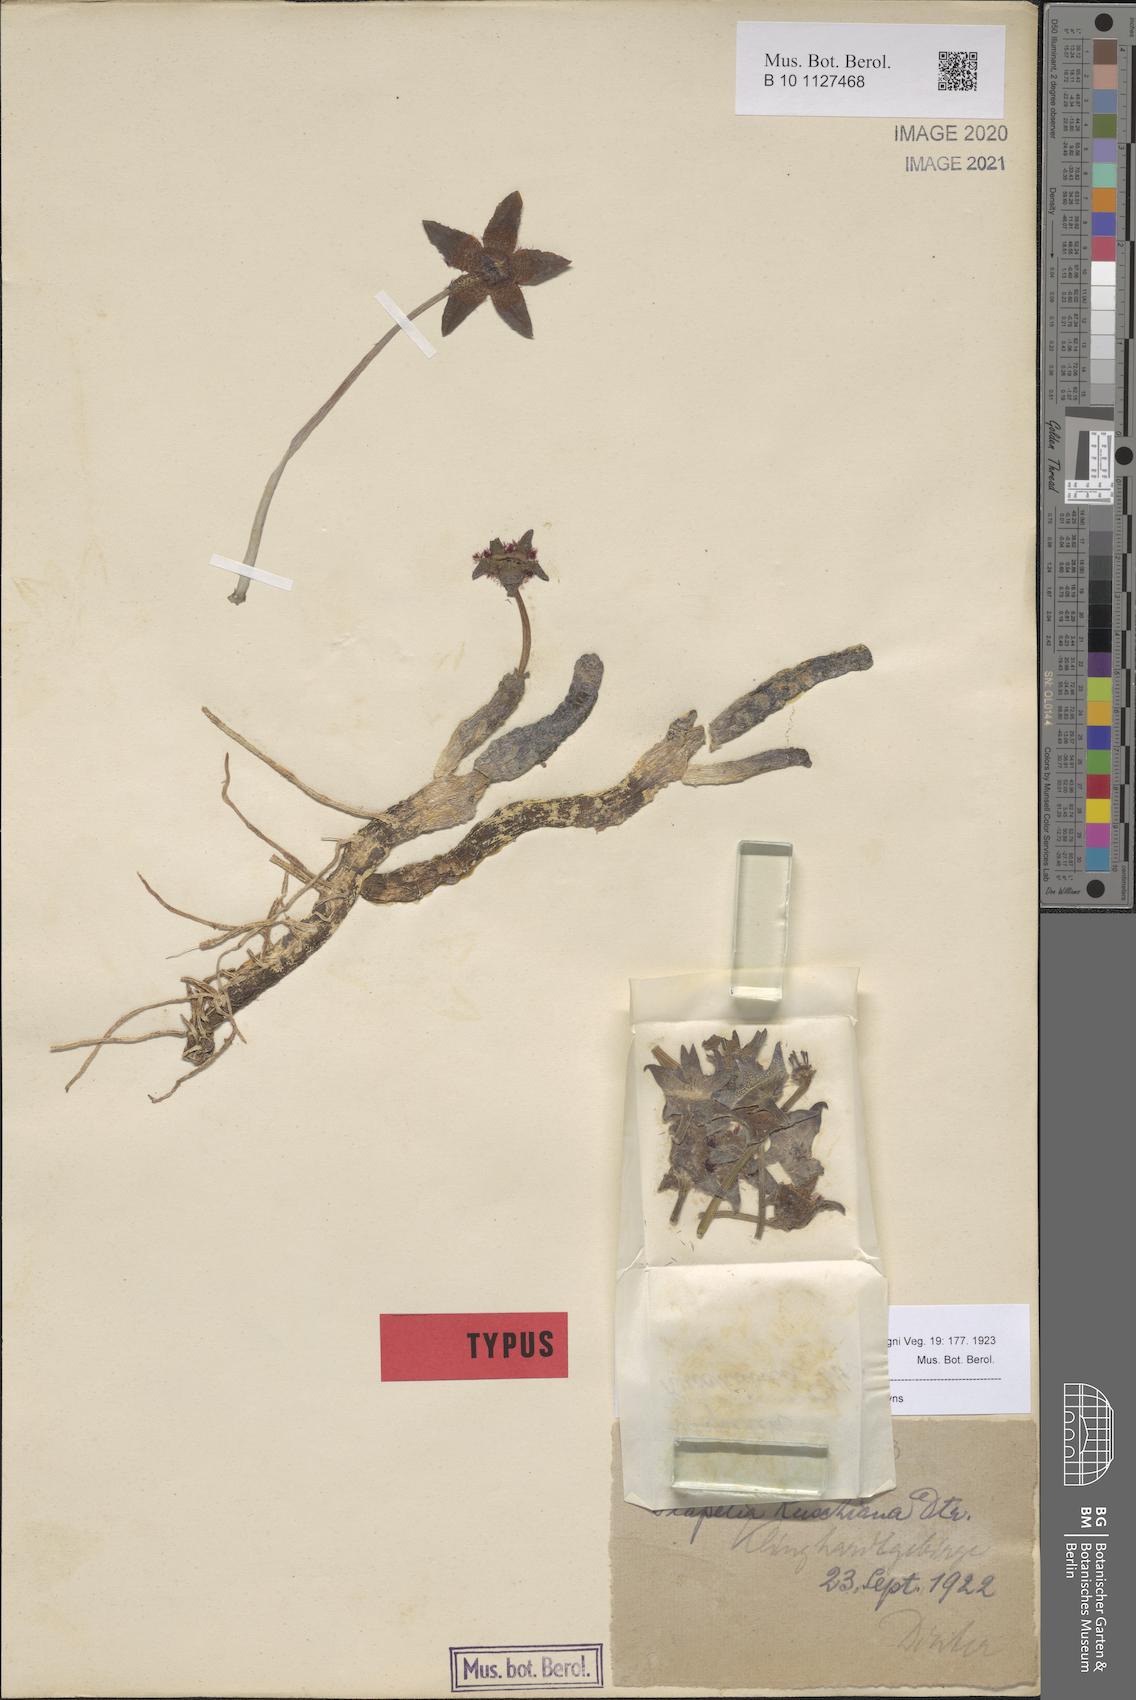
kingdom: Plantae
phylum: Tracheophyta
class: Magnoliopsida
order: Gentianales
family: Apocynaceae
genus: Ceropegia
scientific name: Ceropegia ruschiana
